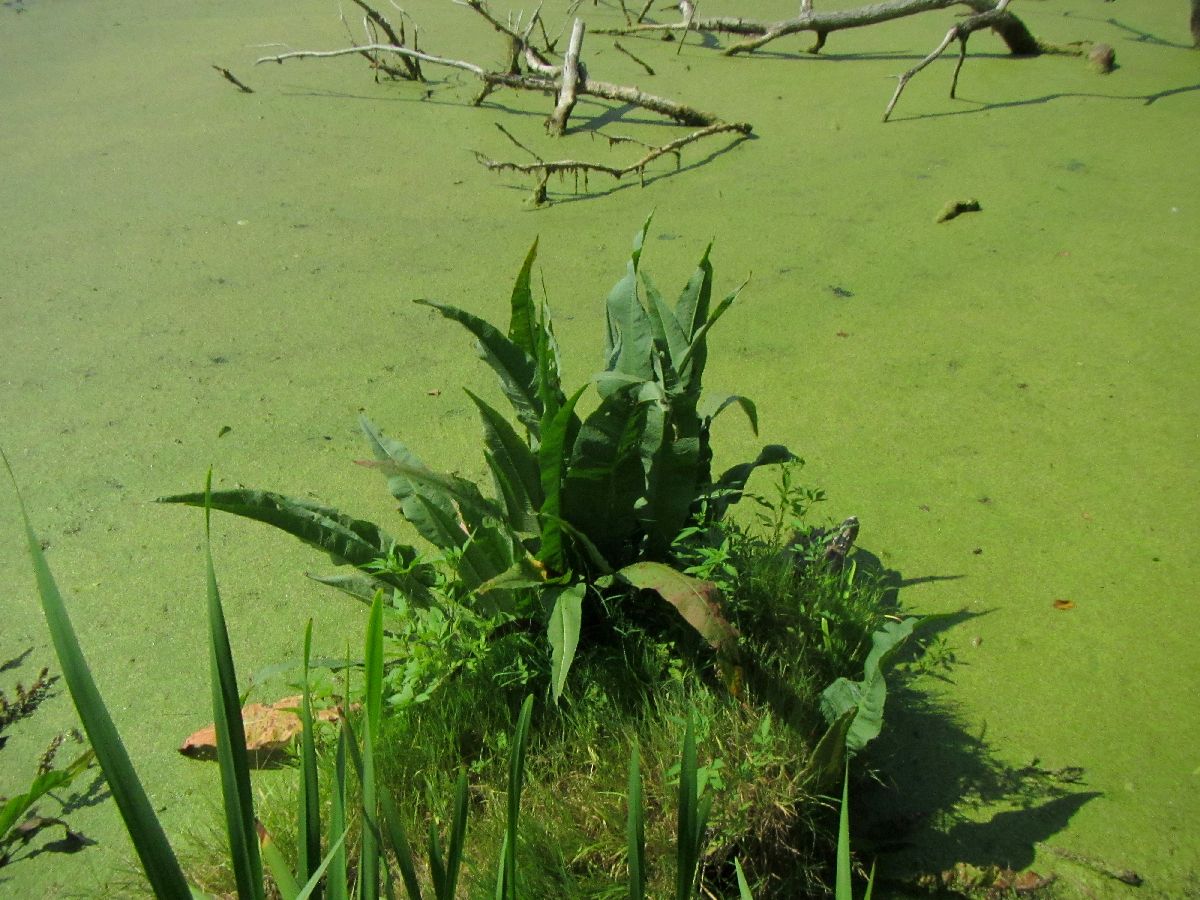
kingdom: Plantae
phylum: Tracheophyta
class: Magnoliopsida
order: Caryophyllales
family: Polygonaceae
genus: Rumex
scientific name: Rumex hydrolapathum
